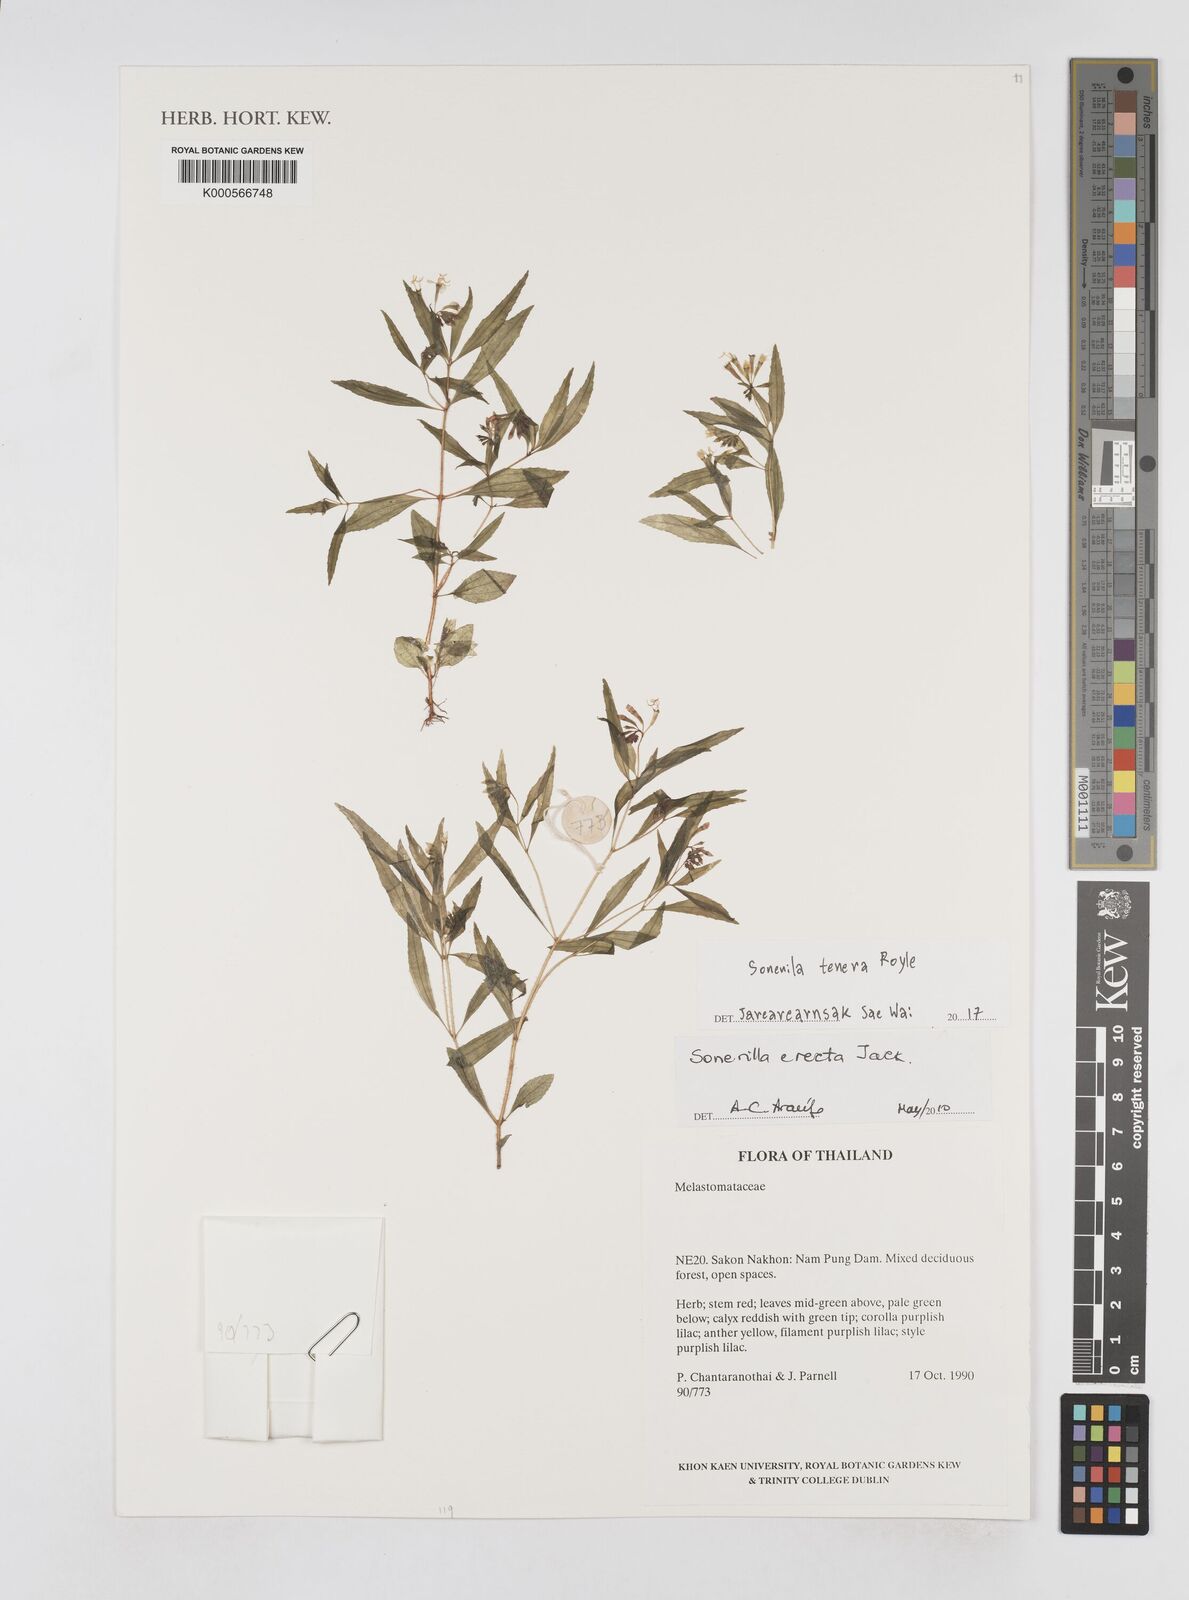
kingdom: Plantae
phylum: Tracheophyta
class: Magnoliopsida
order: Myrtales
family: Melastomataceae
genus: Sonerila
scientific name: Sonerila tenera
